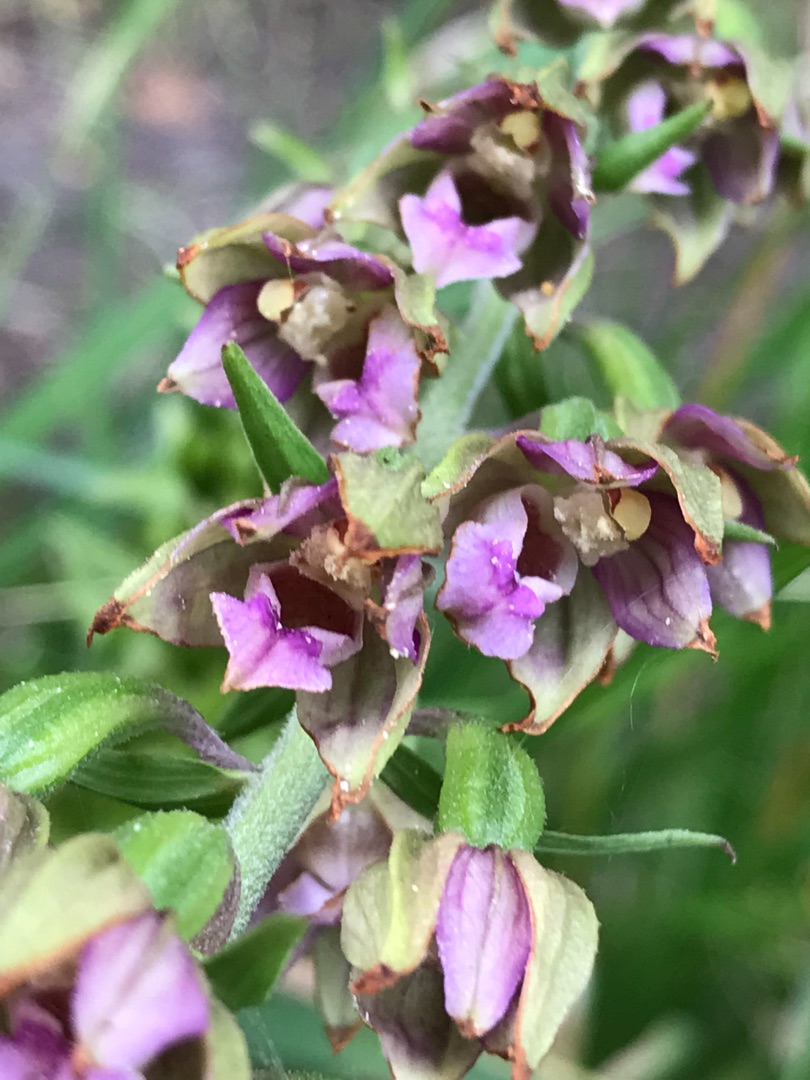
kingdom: Plantae
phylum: Tracheophyta
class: Liliopsida
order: Asparagales
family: Orchidaceae
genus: Epipactis
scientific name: Epipactis helleborine
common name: Skov-hullæbe (underart)
